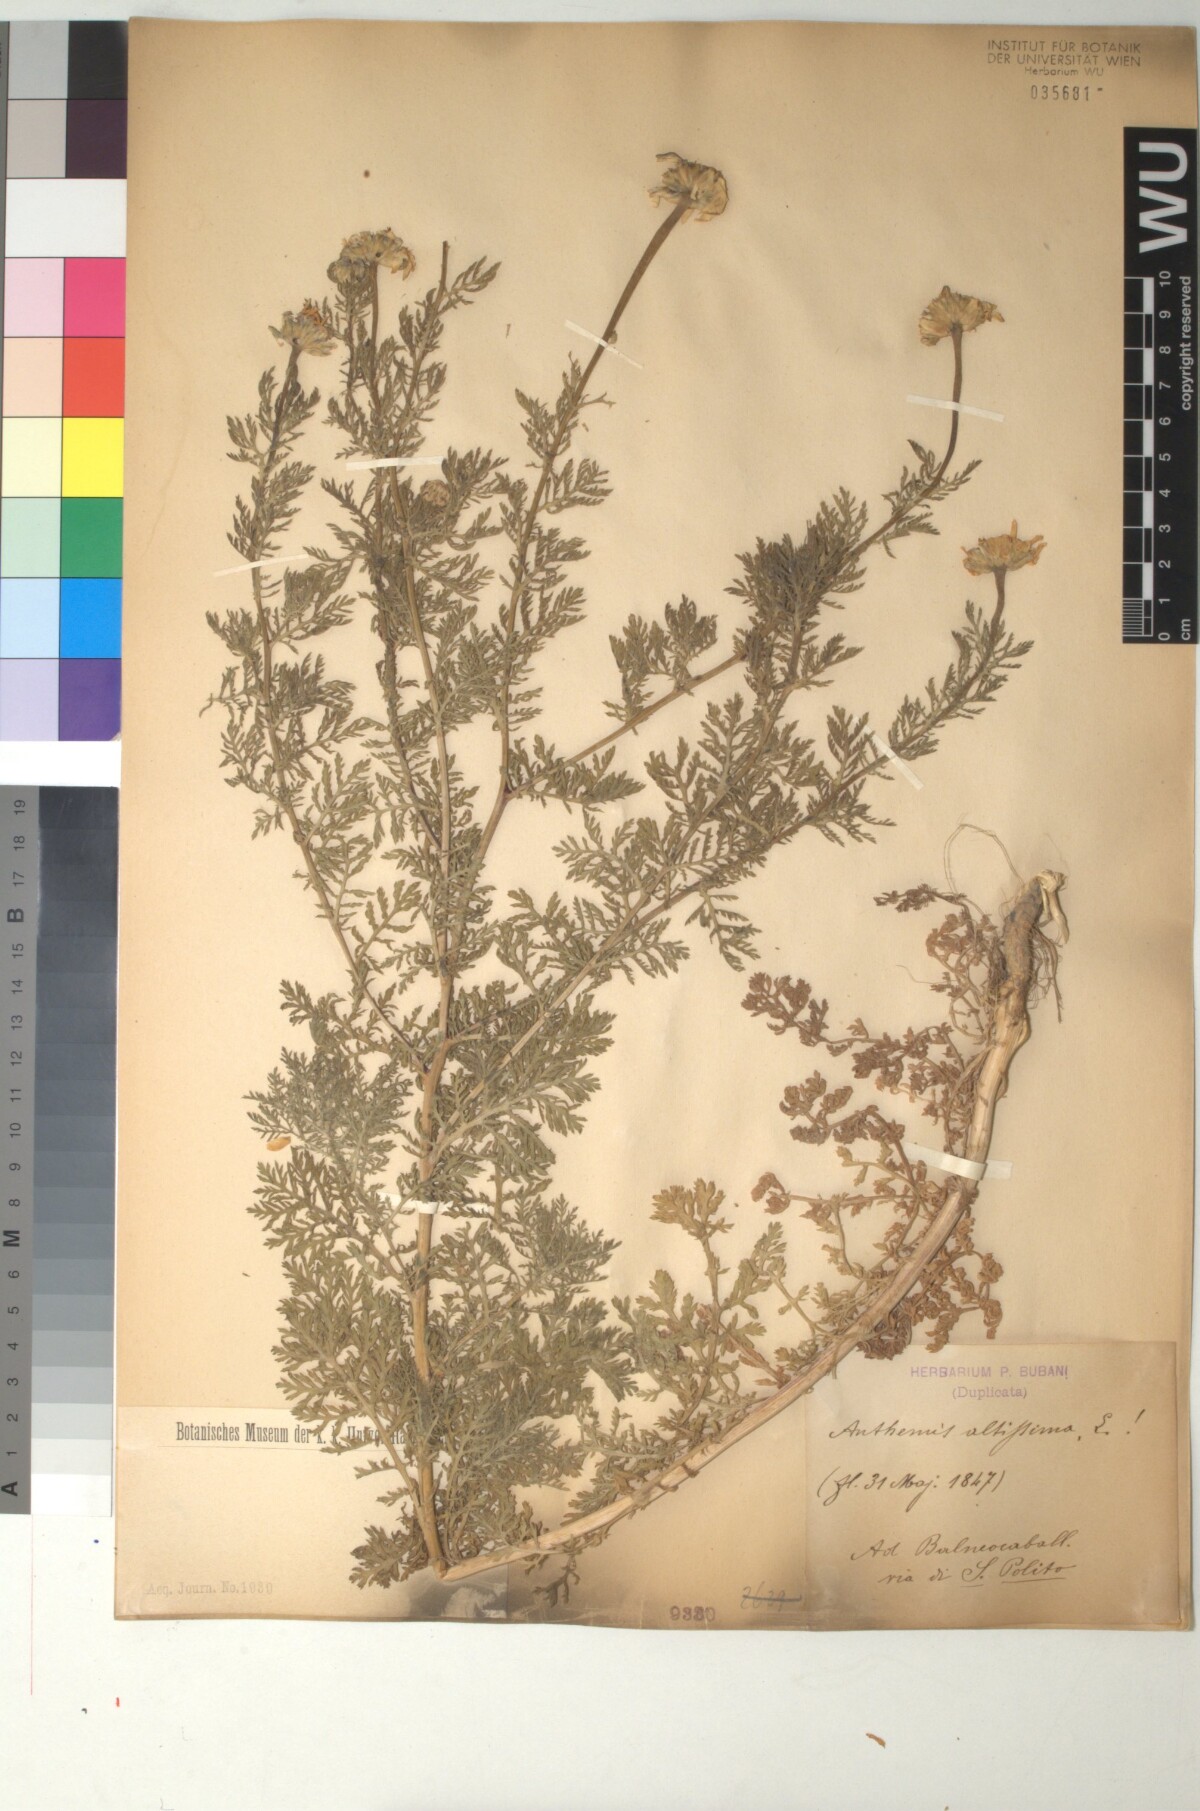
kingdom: Plantae
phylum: Tracheophyta
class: Magnoliopsida
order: Asterales
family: Asteraceae
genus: Cota
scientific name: Cota altissima
